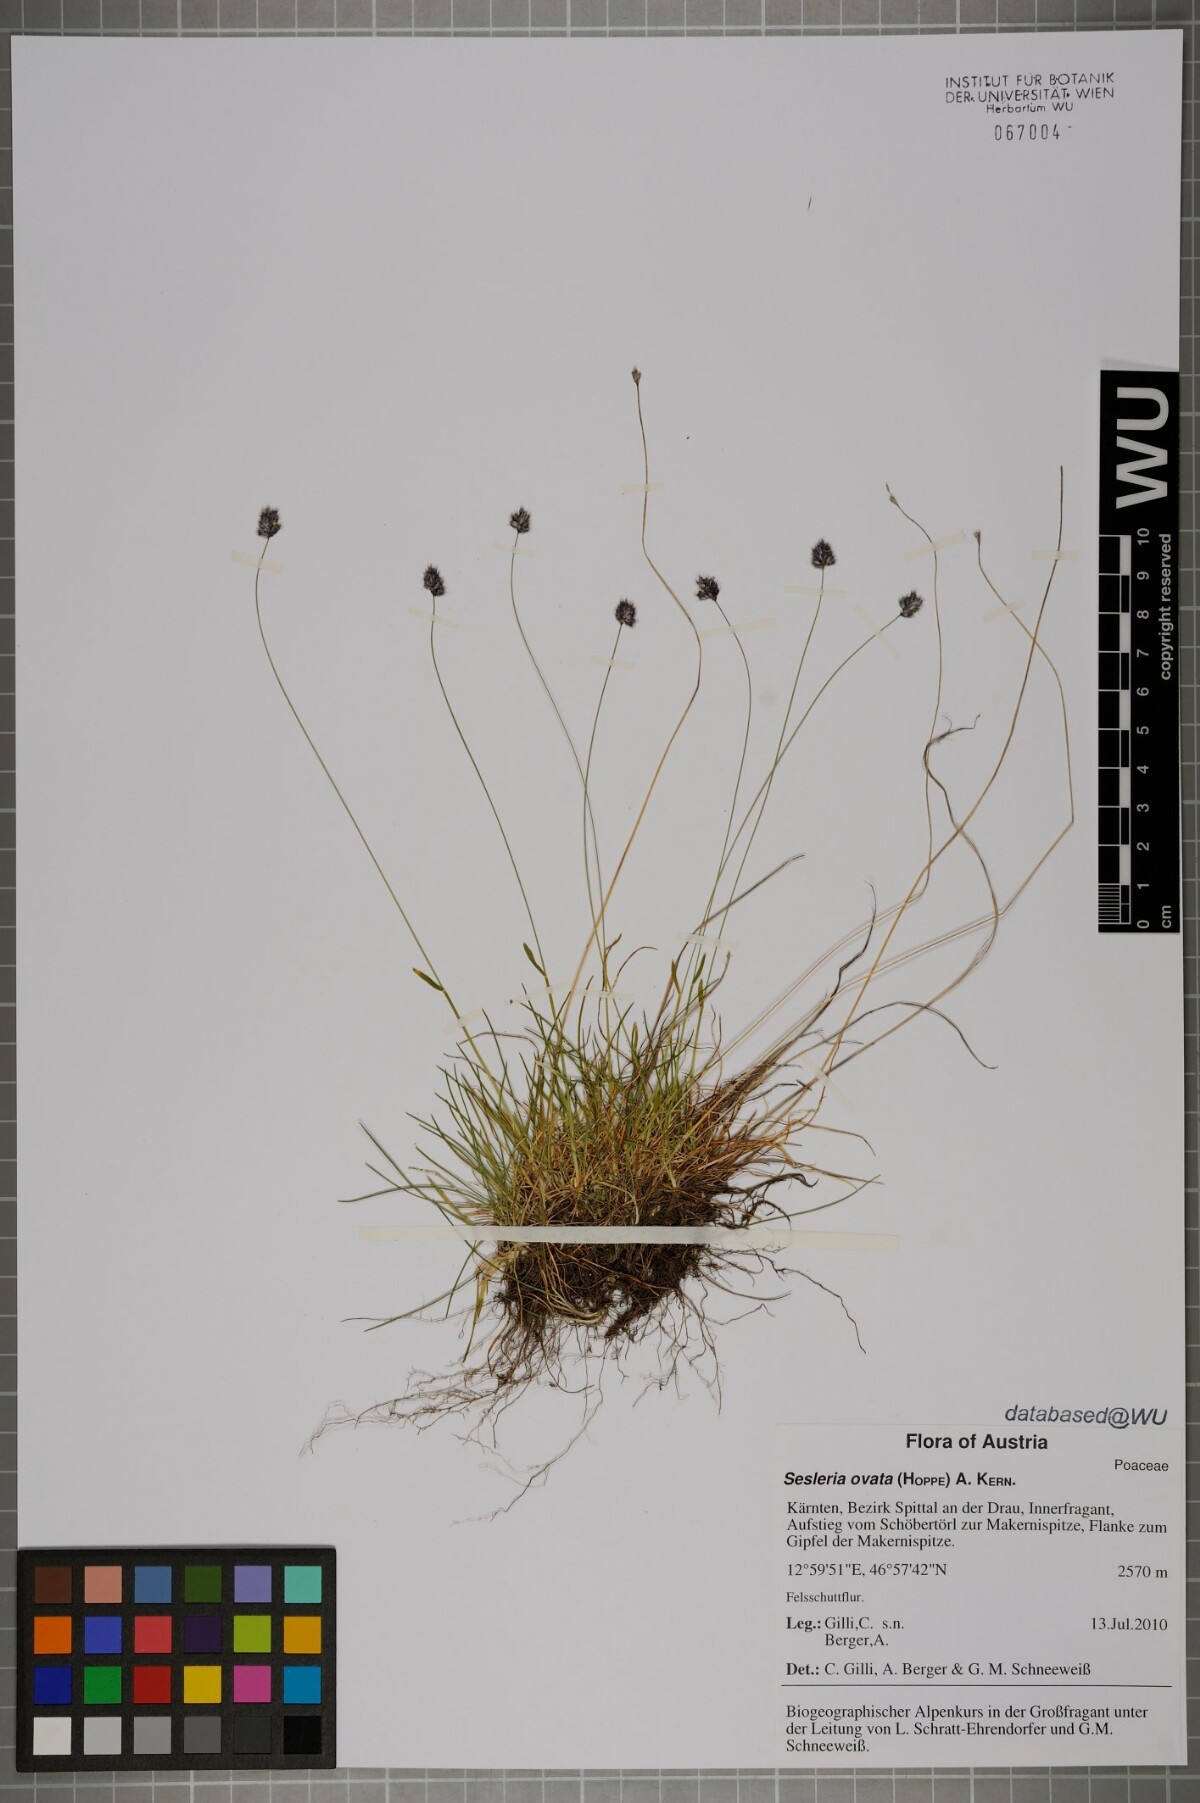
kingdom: Plantae
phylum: Tracheophyta
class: Liliopsida
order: Poales
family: Poaceae
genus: Psilathera
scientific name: Psilathera ovata
